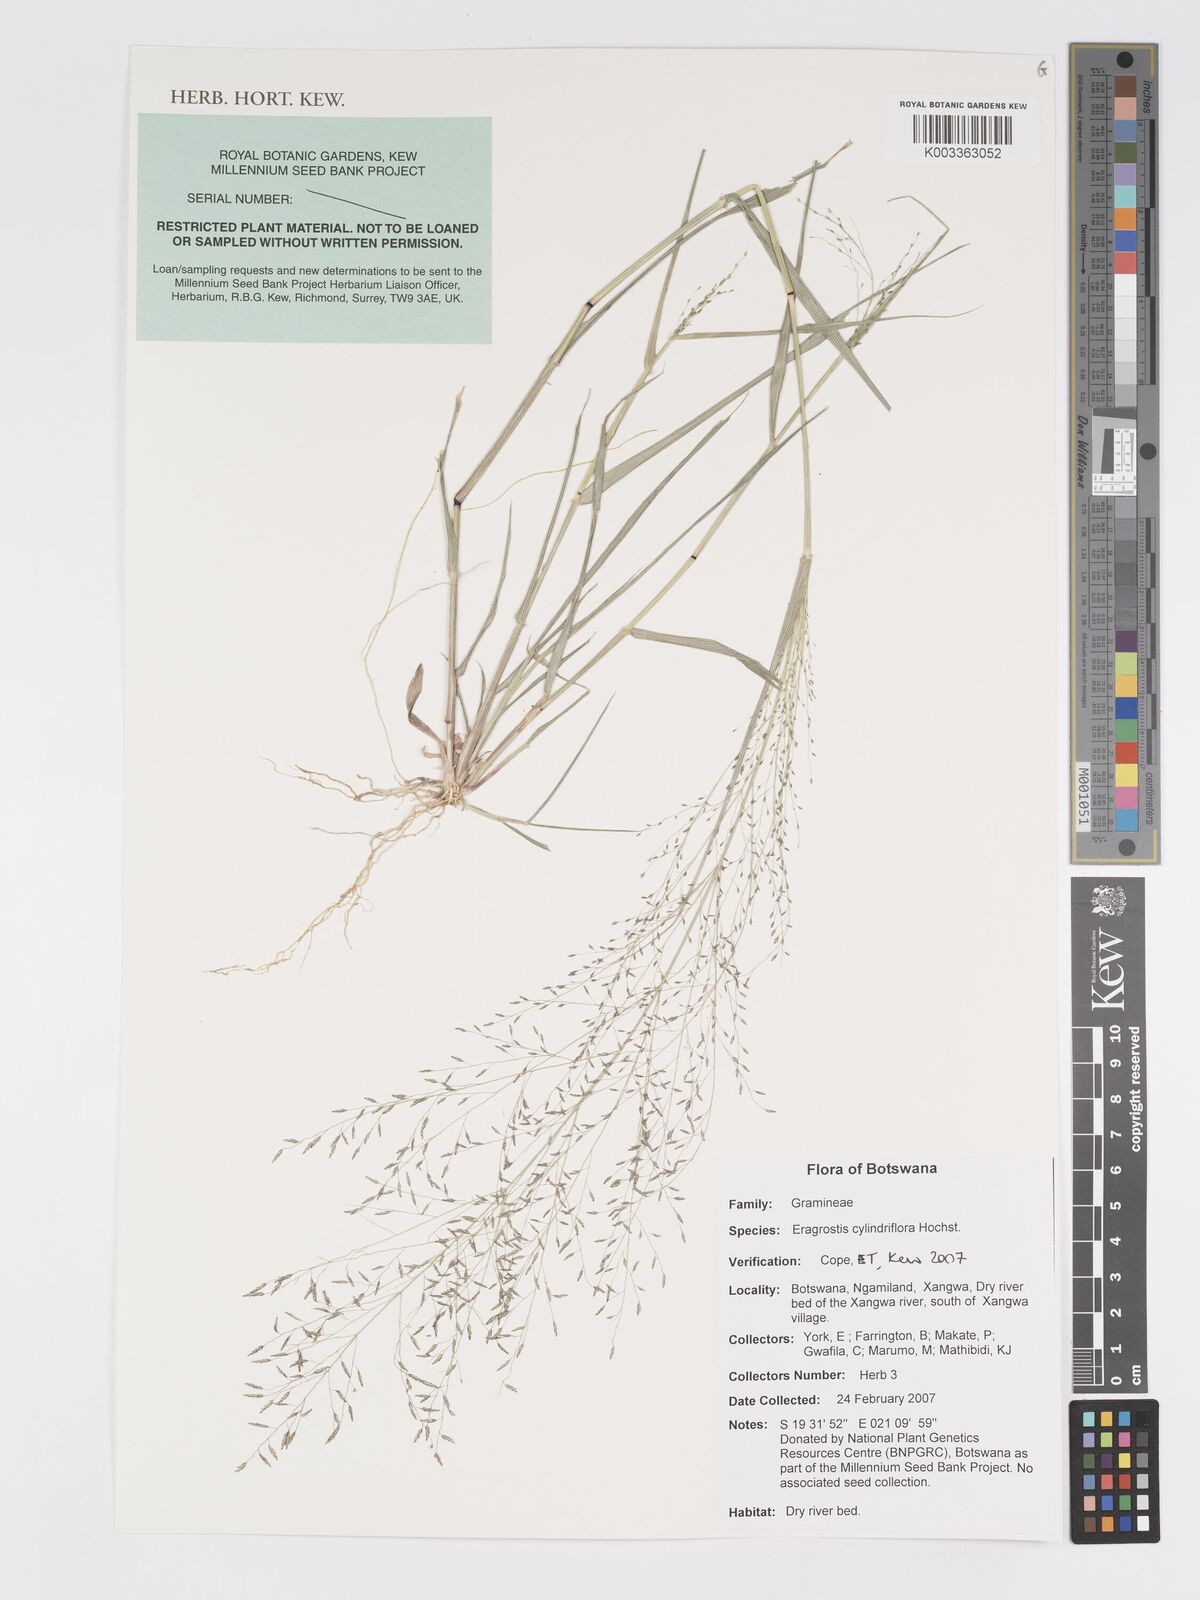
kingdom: Plantae
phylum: Tracheophyta
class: Liliopsida
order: Poales
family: Poaceae
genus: Eragrostis
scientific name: Eragrostis cylindriflora
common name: Cylinderflower lovegrass
